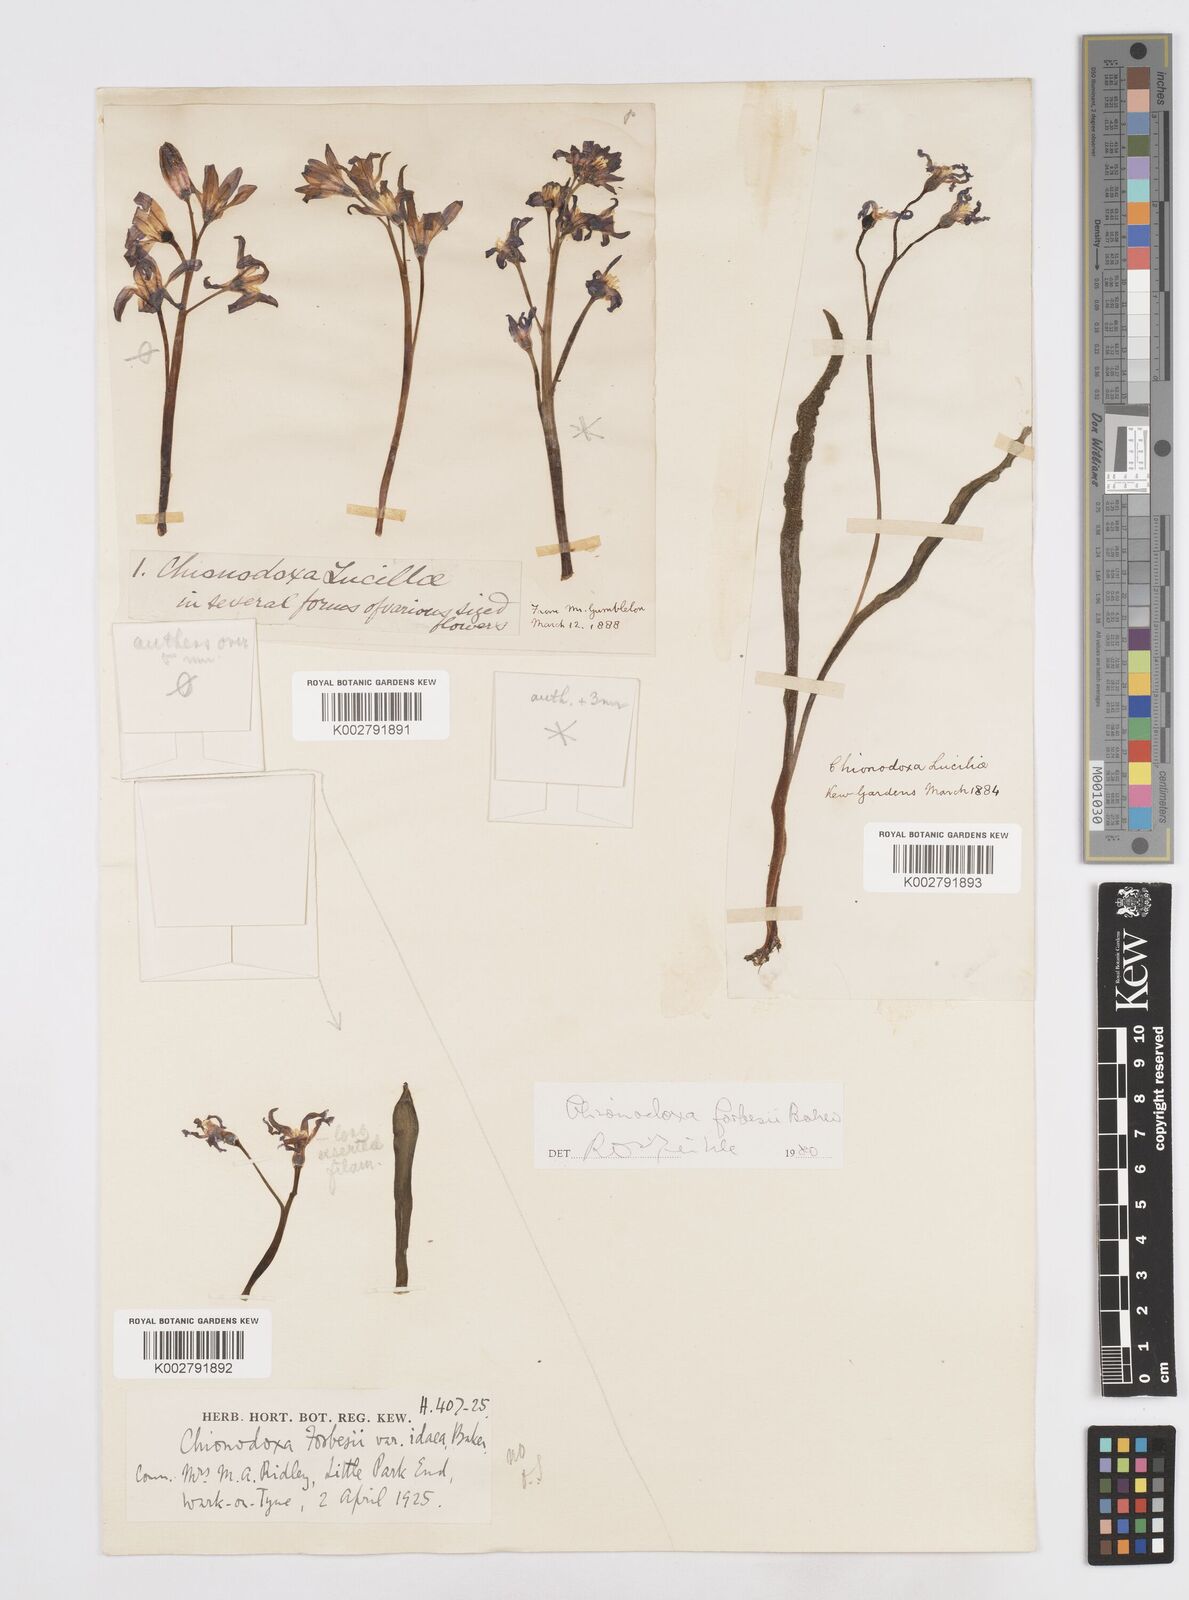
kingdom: Plantae
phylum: Tracheophyta
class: Liliopsida
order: Asparagales
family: Asparagaceae
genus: Scilla
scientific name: Scilla forbesii
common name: Glory-of-the-snow
